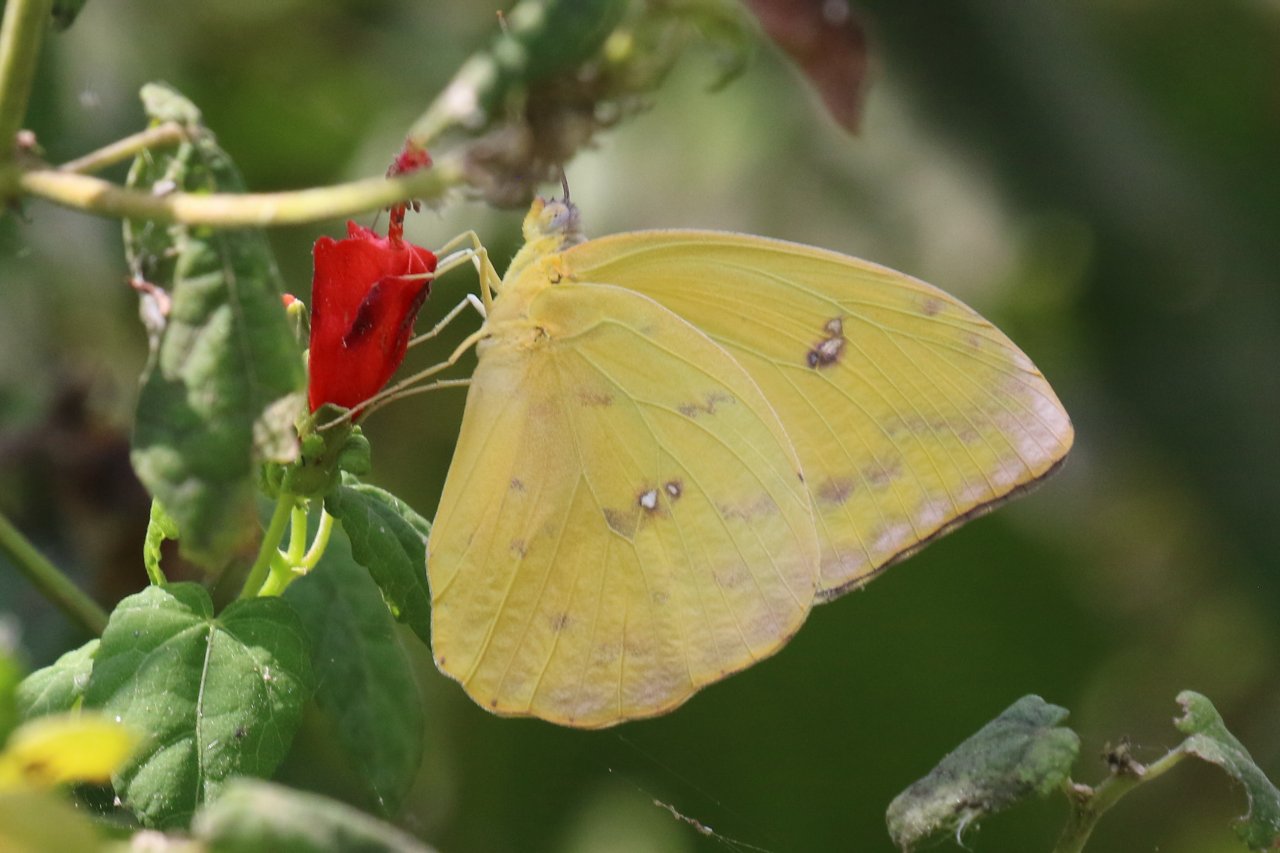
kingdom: Animalia
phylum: Arthropoda
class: Insecta
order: Lepidoptera
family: Pieridae
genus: Phoebis
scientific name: Phoebis philea
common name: Orange-barred Sulphur
